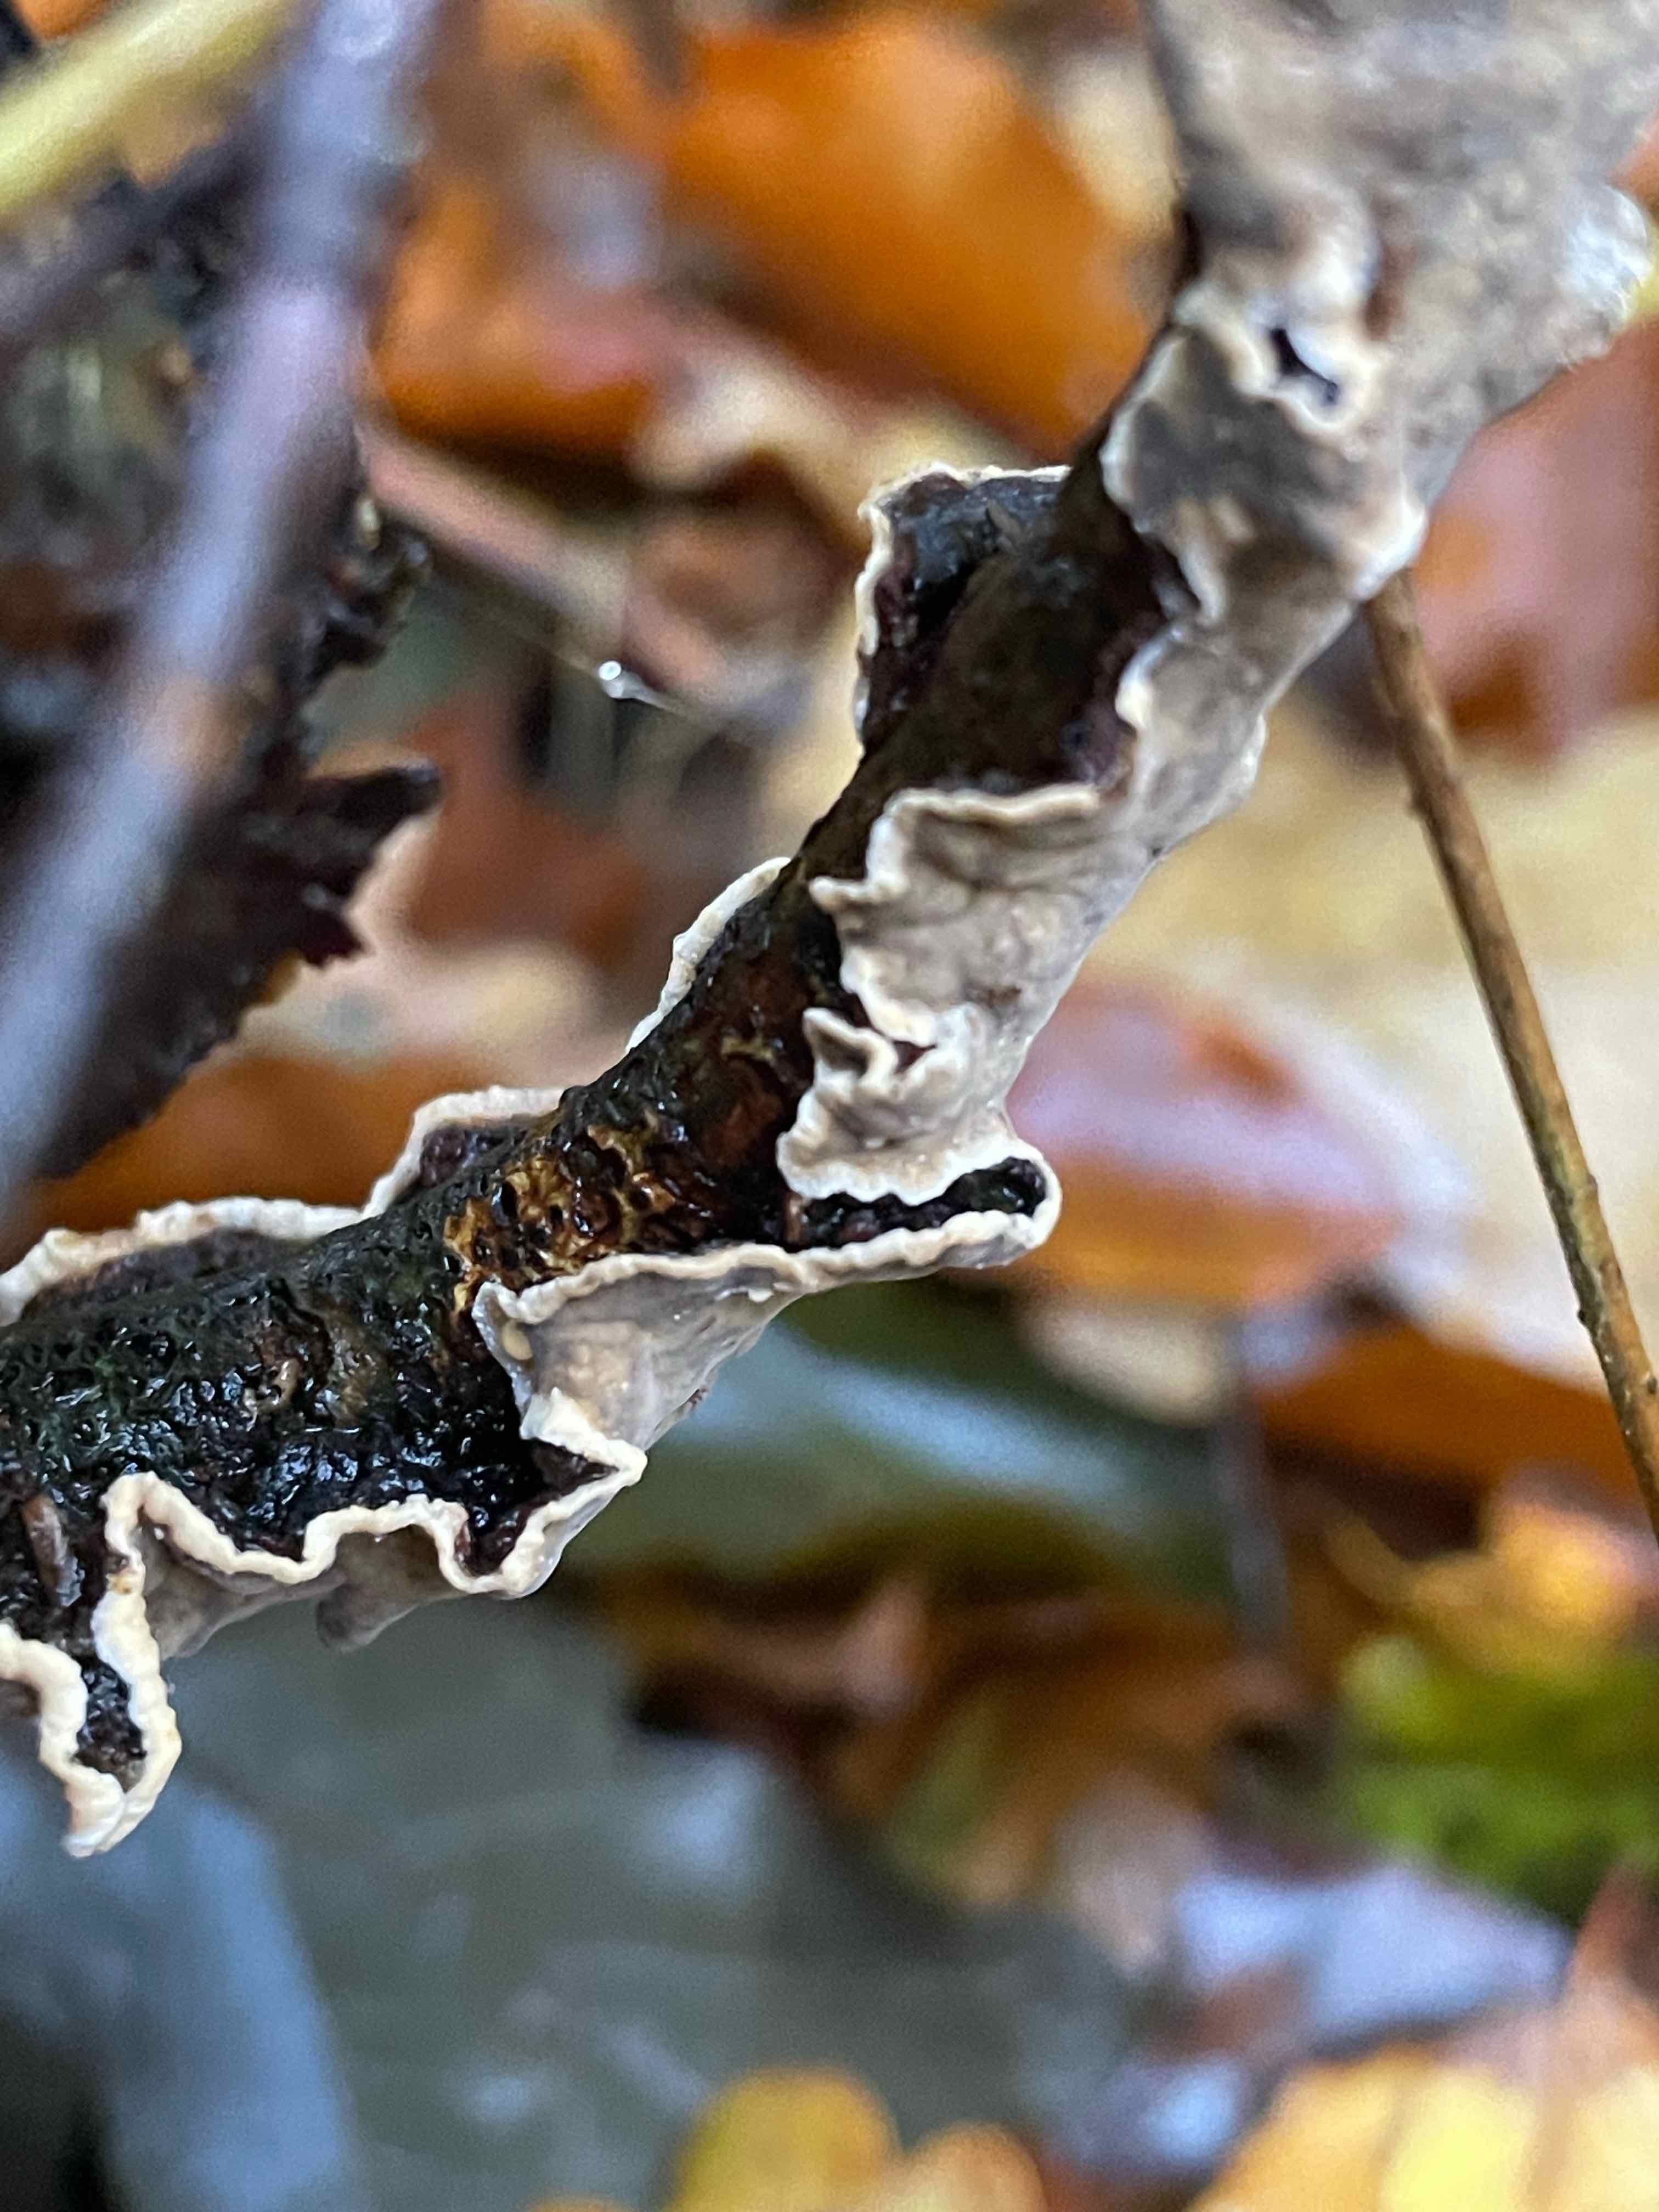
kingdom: Fungi
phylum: Basidiomycota
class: Agaricomycetes
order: Russulales
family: Stereaceae
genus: Stereum
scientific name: Stereum
